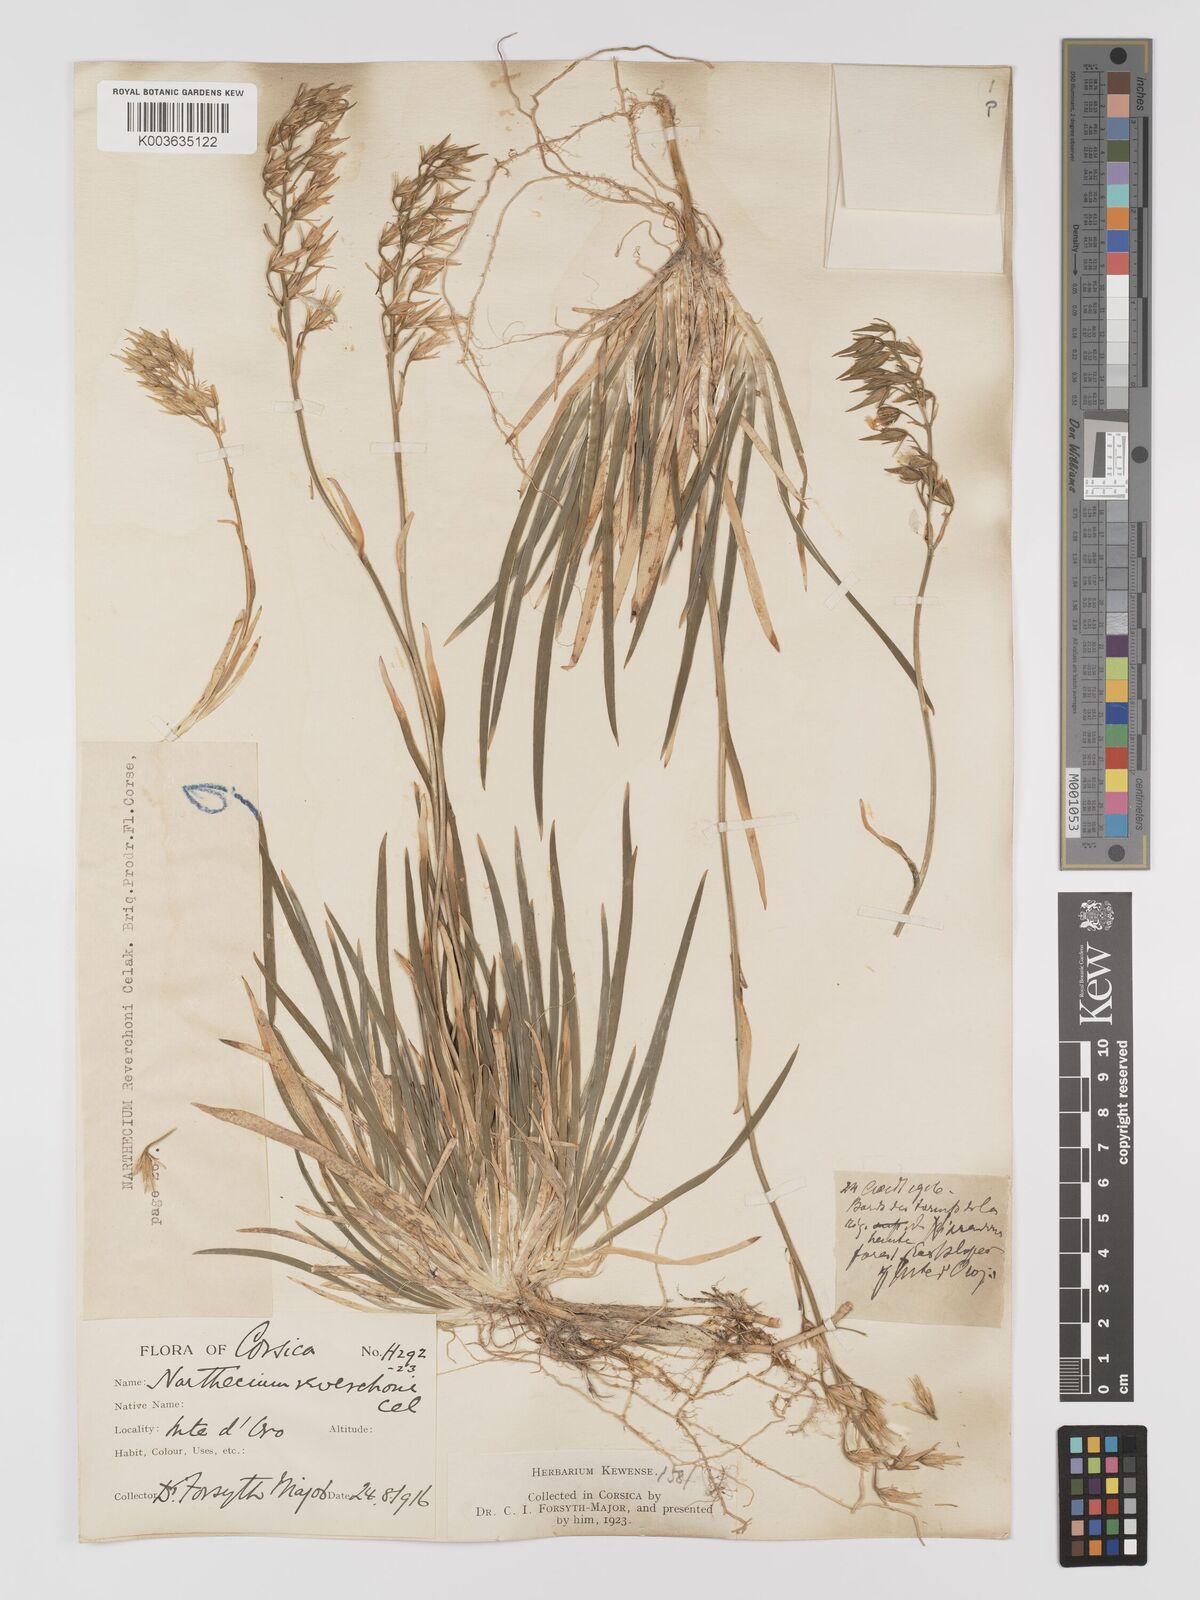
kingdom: Plantae
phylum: Tracheophyta
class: Liliopsida
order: Dioscoreales
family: Nartheciaceae
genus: Narthecium
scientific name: Narthecium reverchonii
